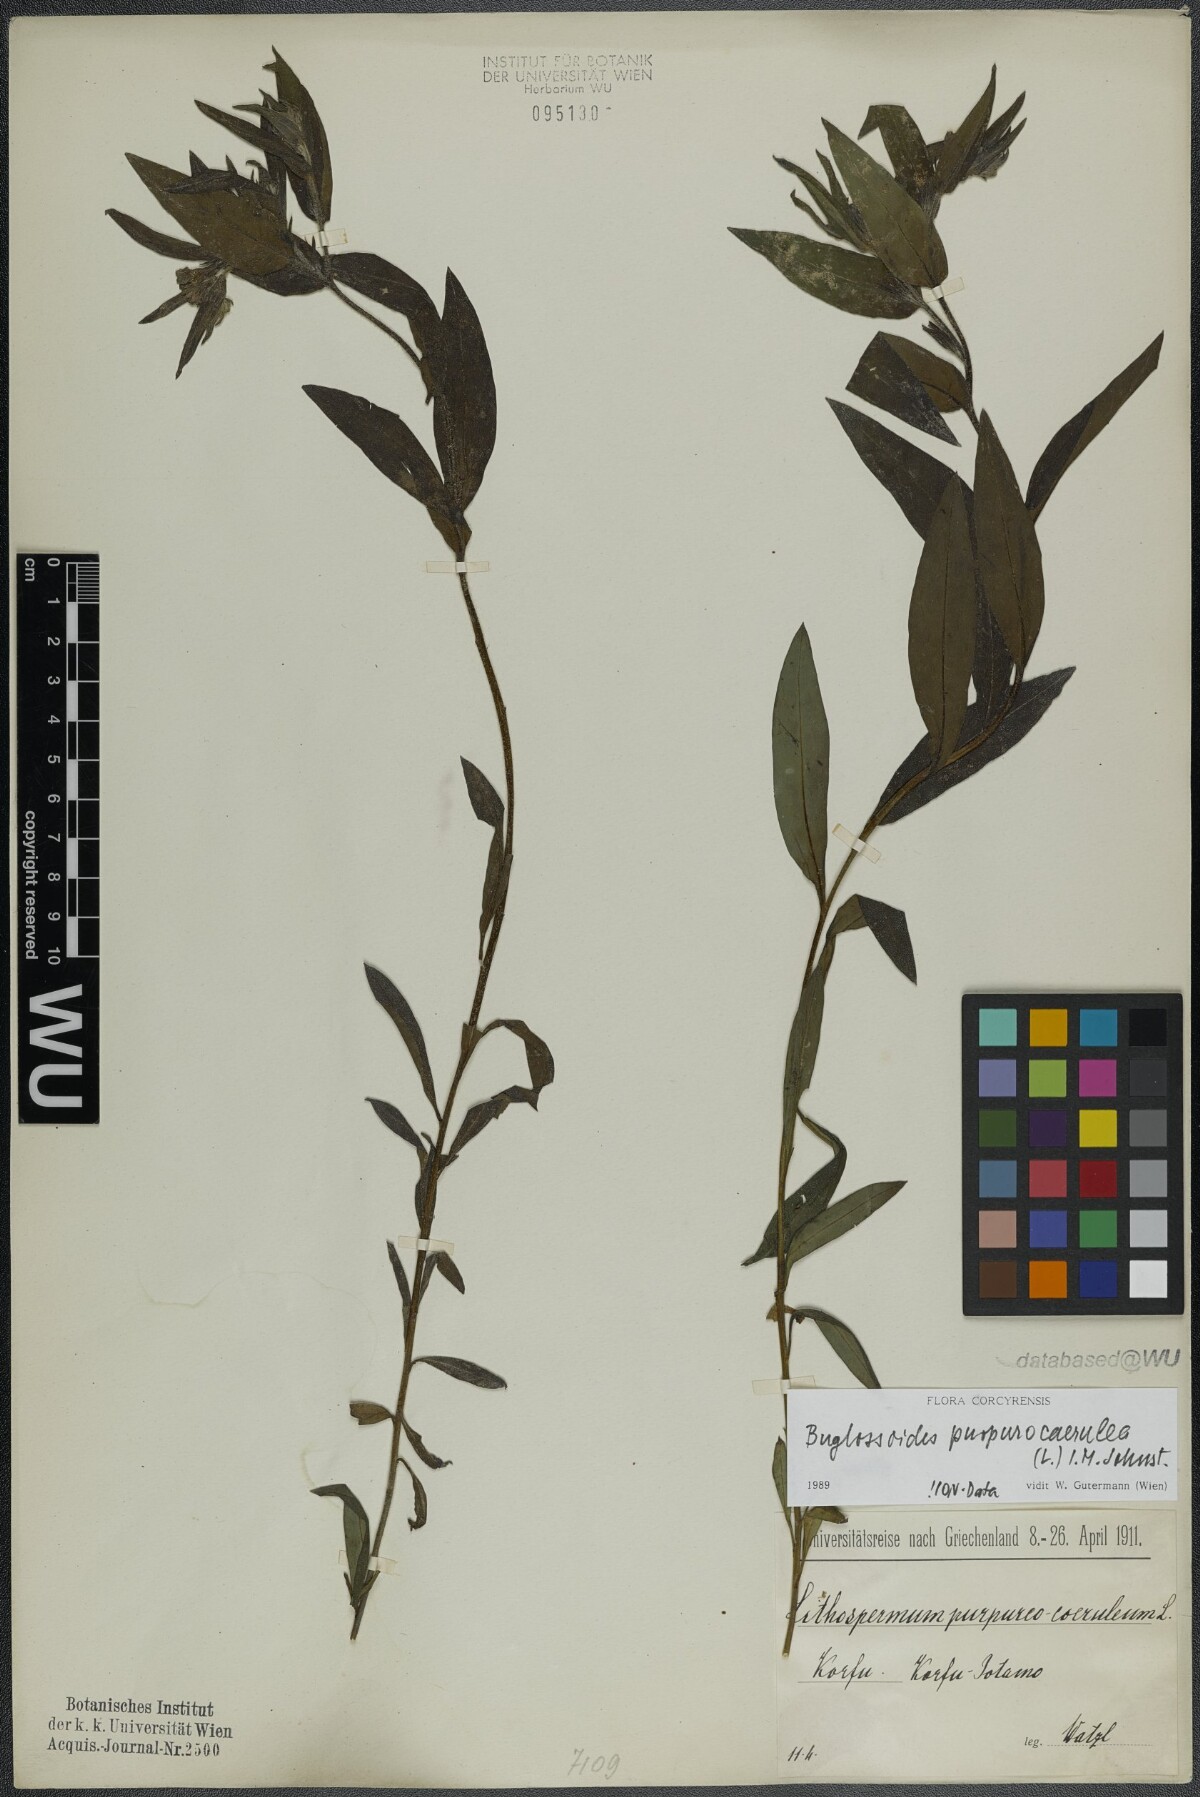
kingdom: Plantae
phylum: Tracheophyta
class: Magnoliopsida
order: Boraginales
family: Boraginaceae
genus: Aegonychon
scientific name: Aegonychon purpurocaeruleum
